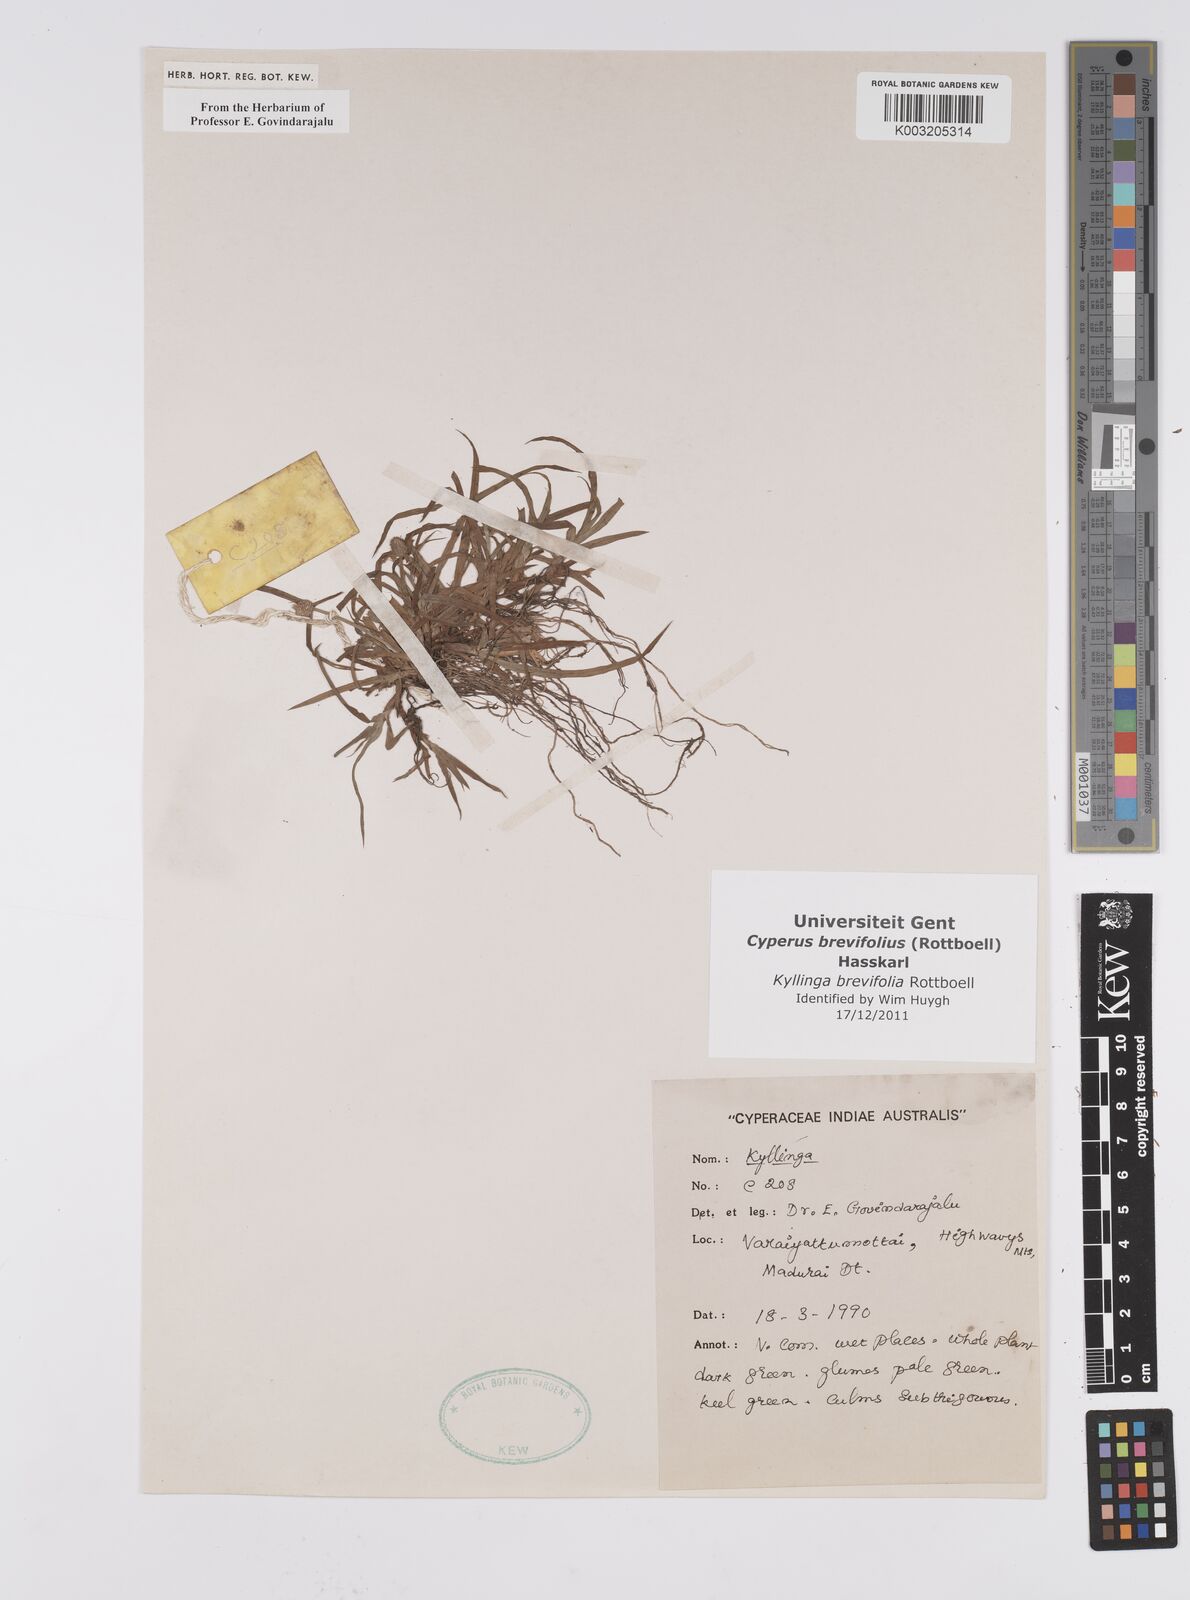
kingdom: Plantae
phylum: Tracheophyta
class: Liliopsida
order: Poales
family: Cyperaceae
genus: Cyperus
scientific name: Cyperus brevifolius
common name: Globe kyllinga
